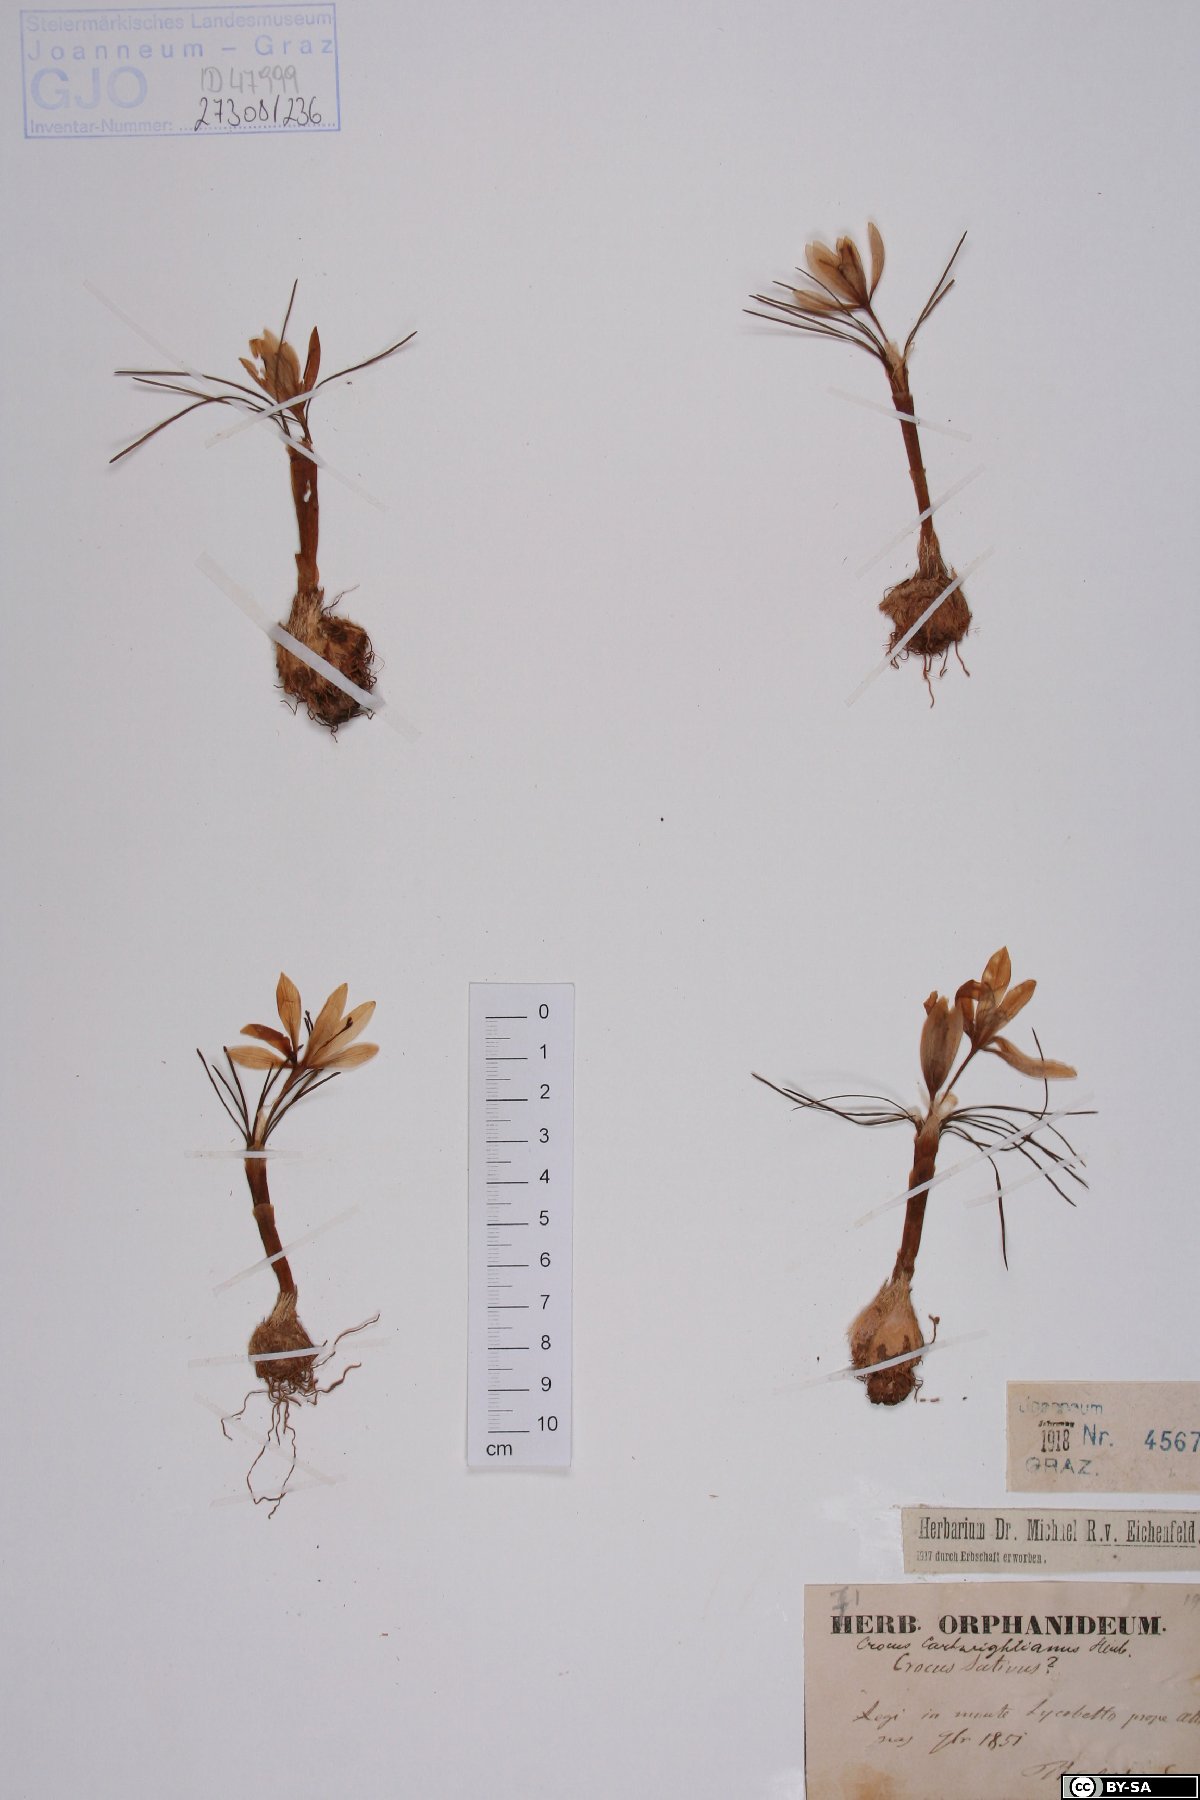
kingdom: Plantae
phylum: Tracheophyta
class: Liliopsida
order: Asparagales
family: Iridaceae
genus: Crocus
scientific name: Crocus cartwrightianus
